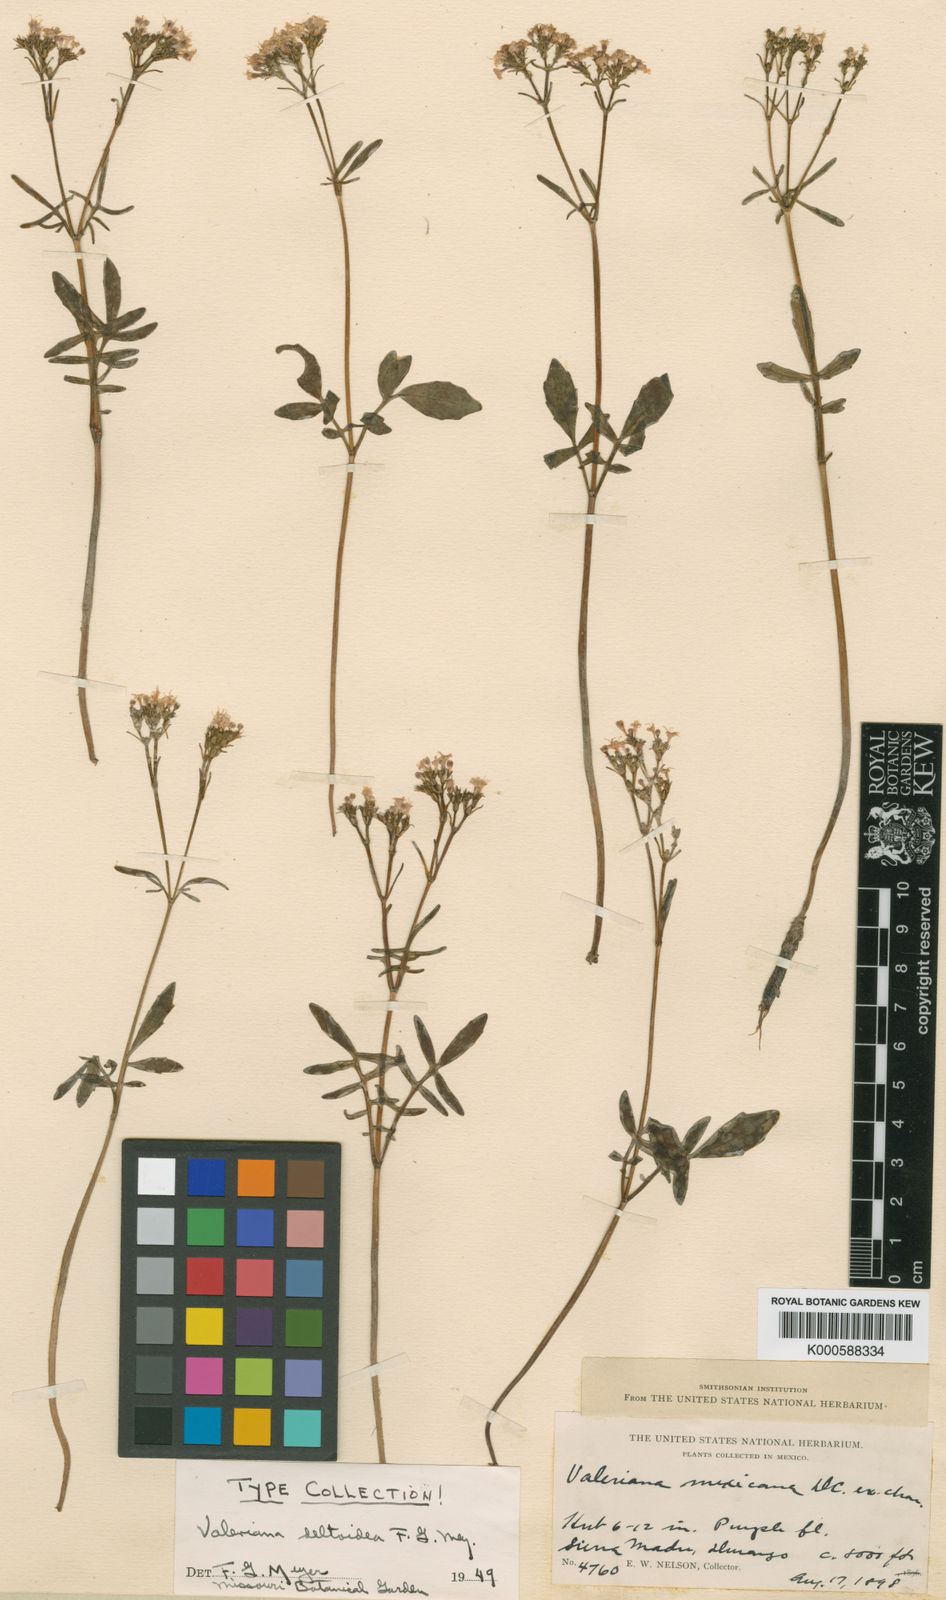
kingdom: Plantae
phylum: Tracheophyta
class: Magnoliopsida
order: Dipsacales
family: Caprifoliaceae
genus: Valeriana
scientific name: Valeriana sorbifolia
